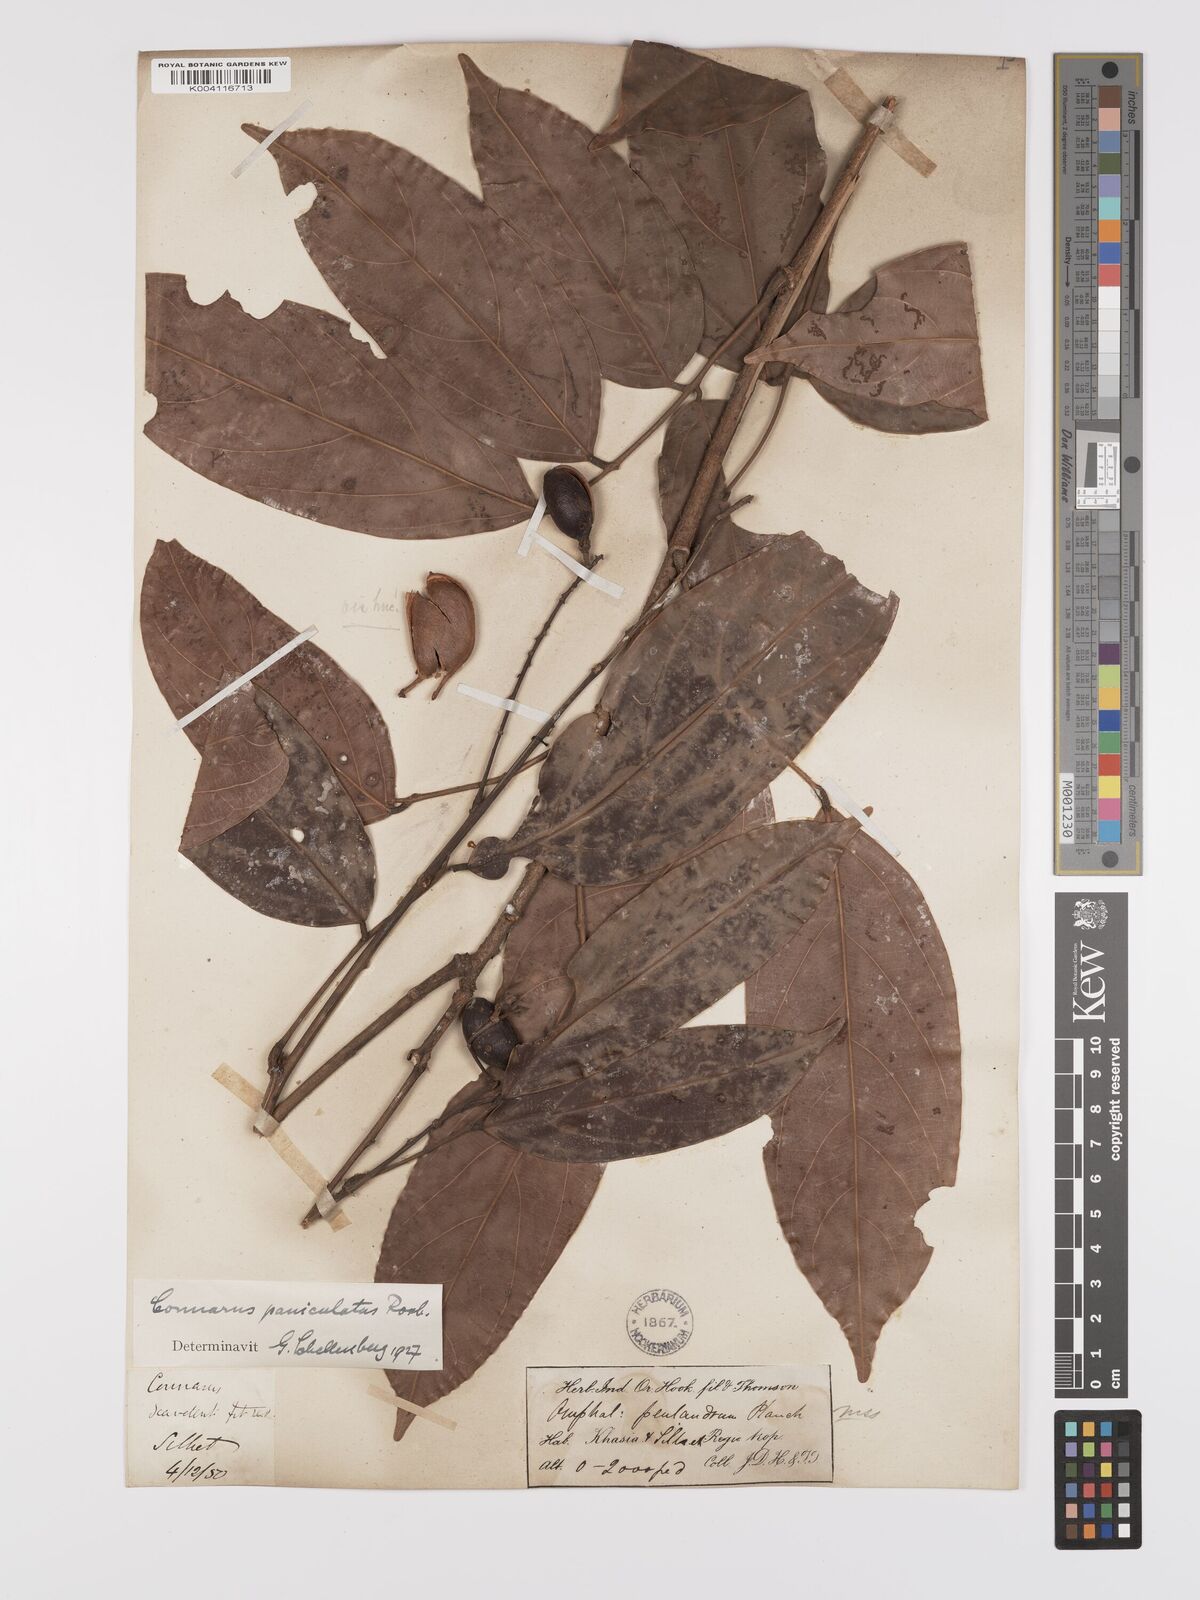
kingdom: Plantae
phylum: Tracheophyta
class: Magnoliopsida
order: Oxalidales
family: Connaraceae
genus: Connarus
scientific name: Connarus paniculatus
